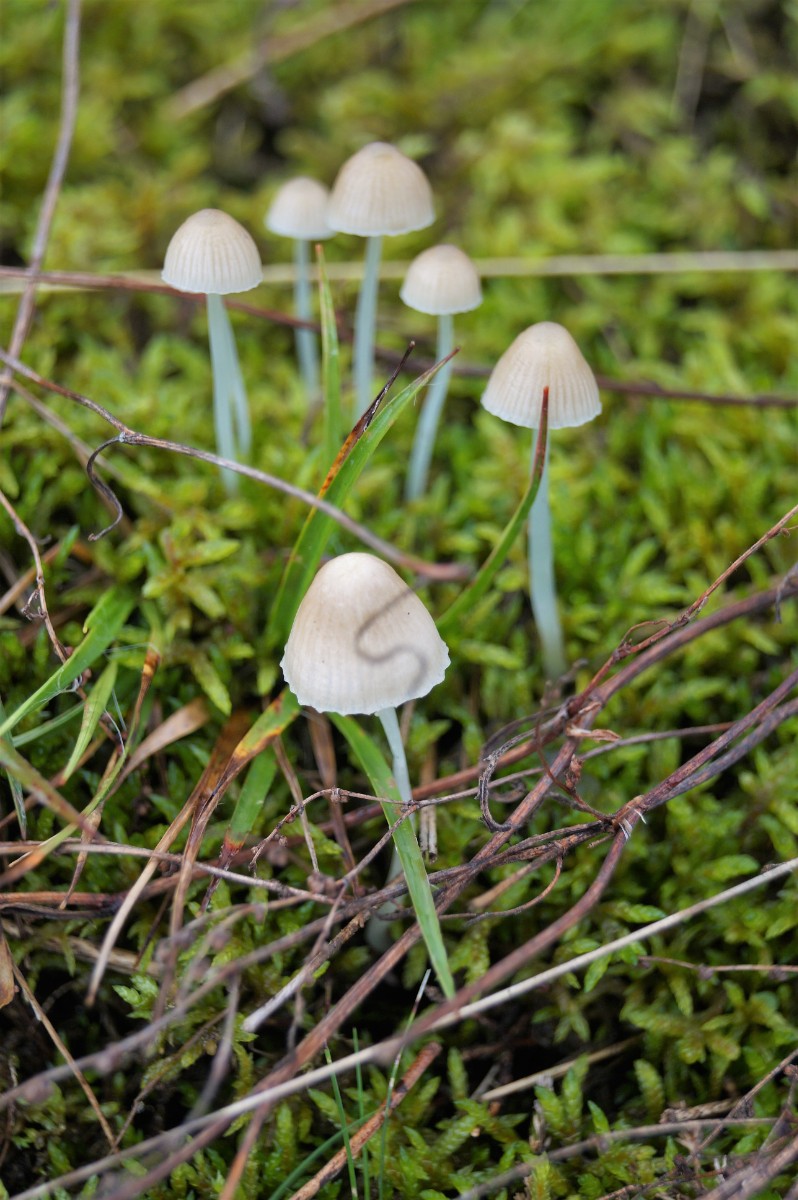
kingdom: Fungi
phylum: Basidiomycota
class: Agaricomycetes
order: Agaricales
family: Mycenaceae
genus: Mycena
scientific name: Mycena epipterygia
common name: Yellowleg bonnet
